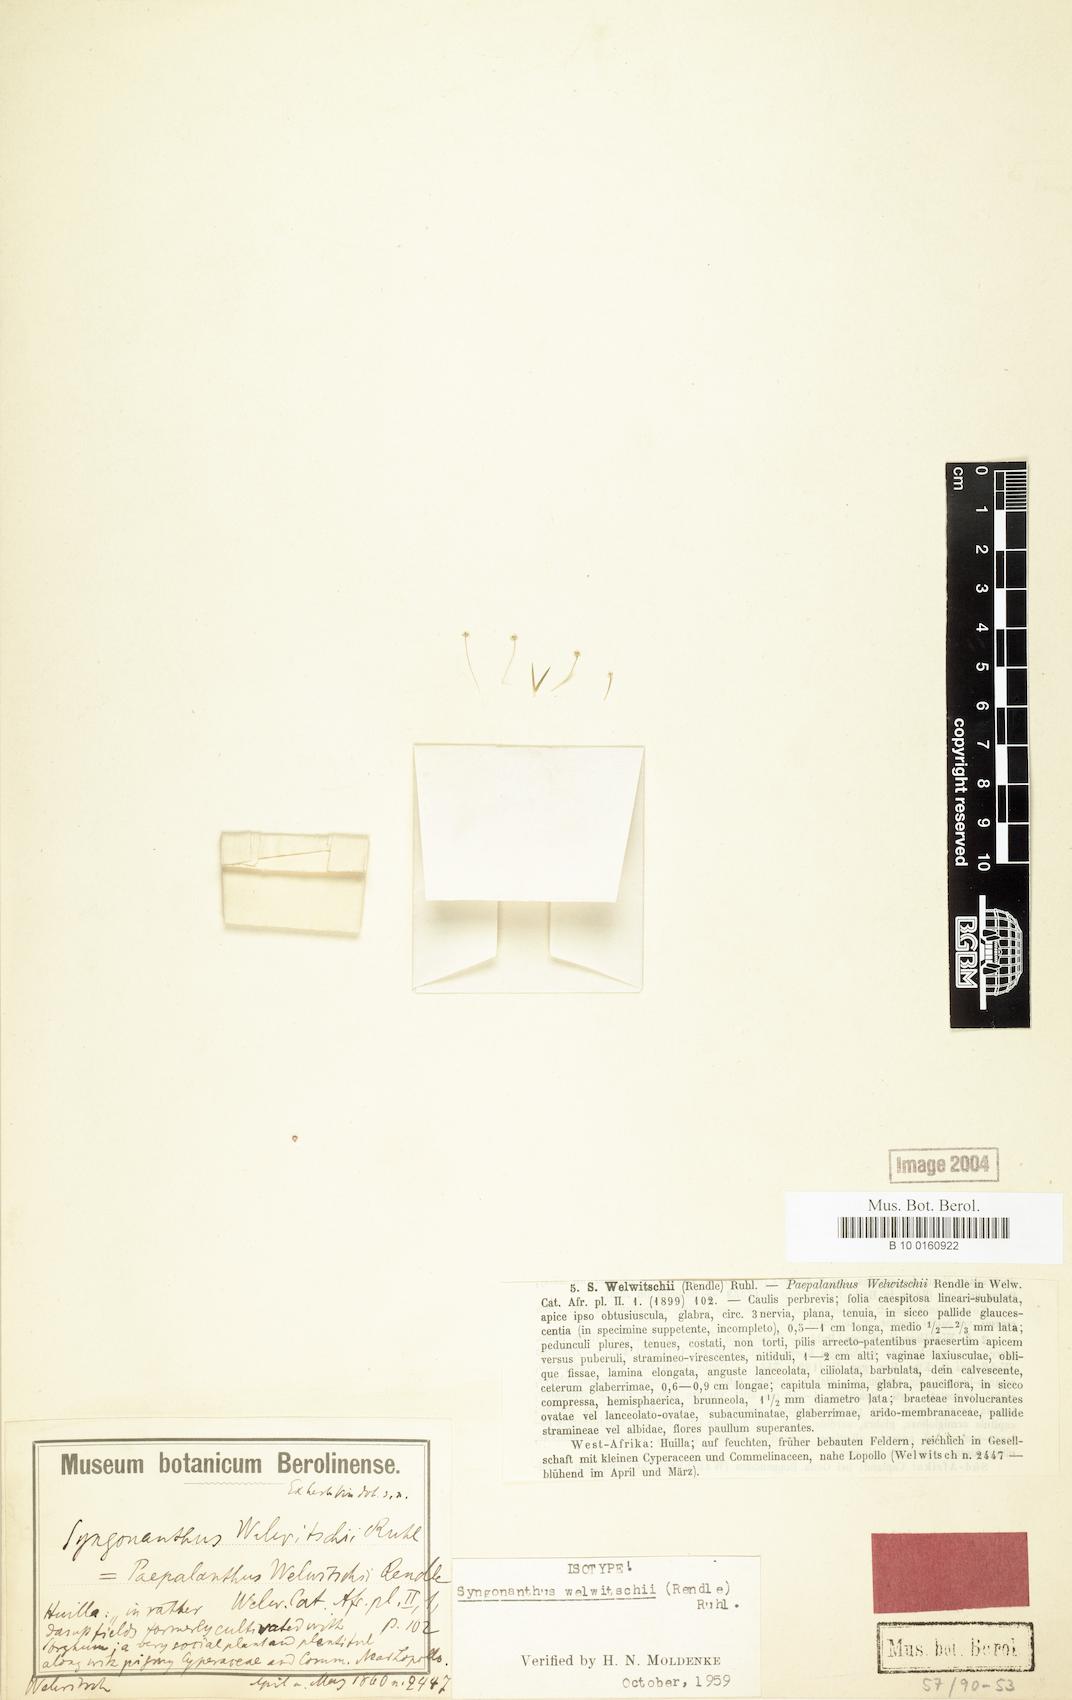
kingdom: Plantae
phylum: Tracheophyta
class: Liliopsida
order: Poales
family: Eriocaulaceae
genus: Syngonanthus
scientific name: Syngonanthus welwitschii
